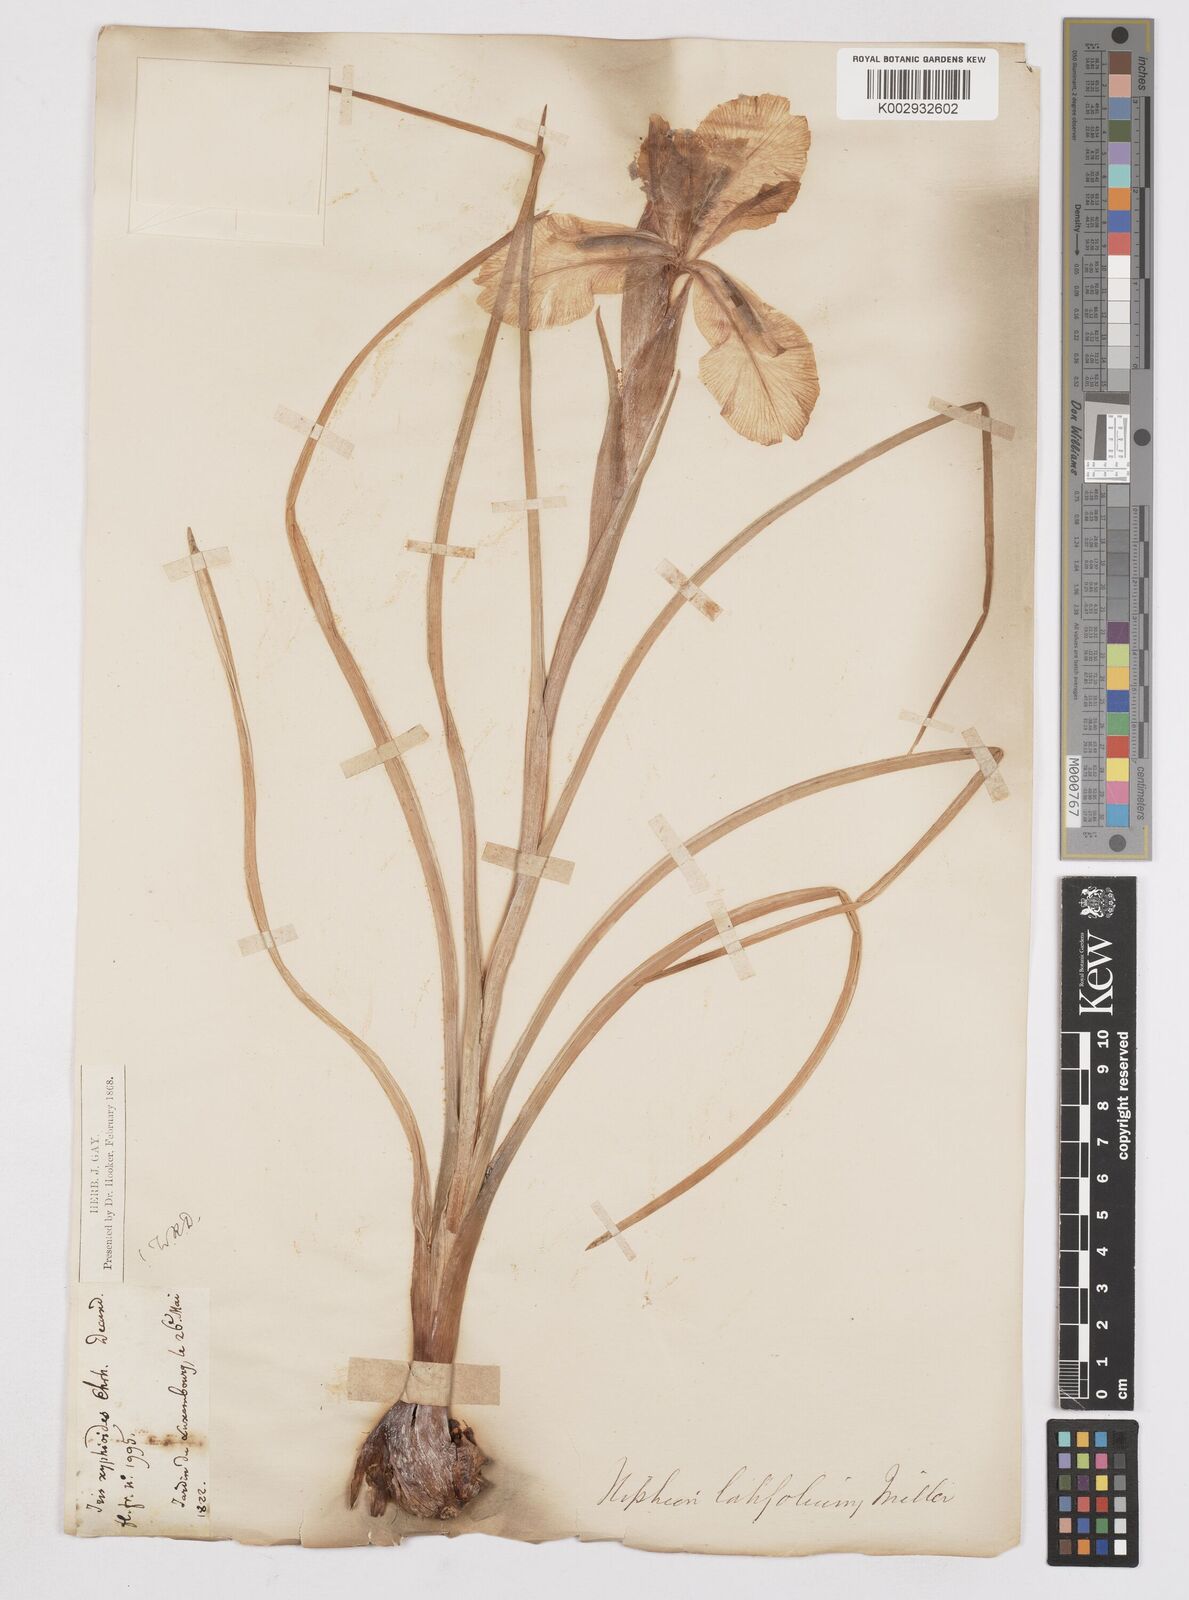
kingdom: Plantae
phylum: Tracheophyta
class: Liliopsida
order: Asparagales
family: Iridaceae
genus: Iris
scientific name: Iris jacquinii
